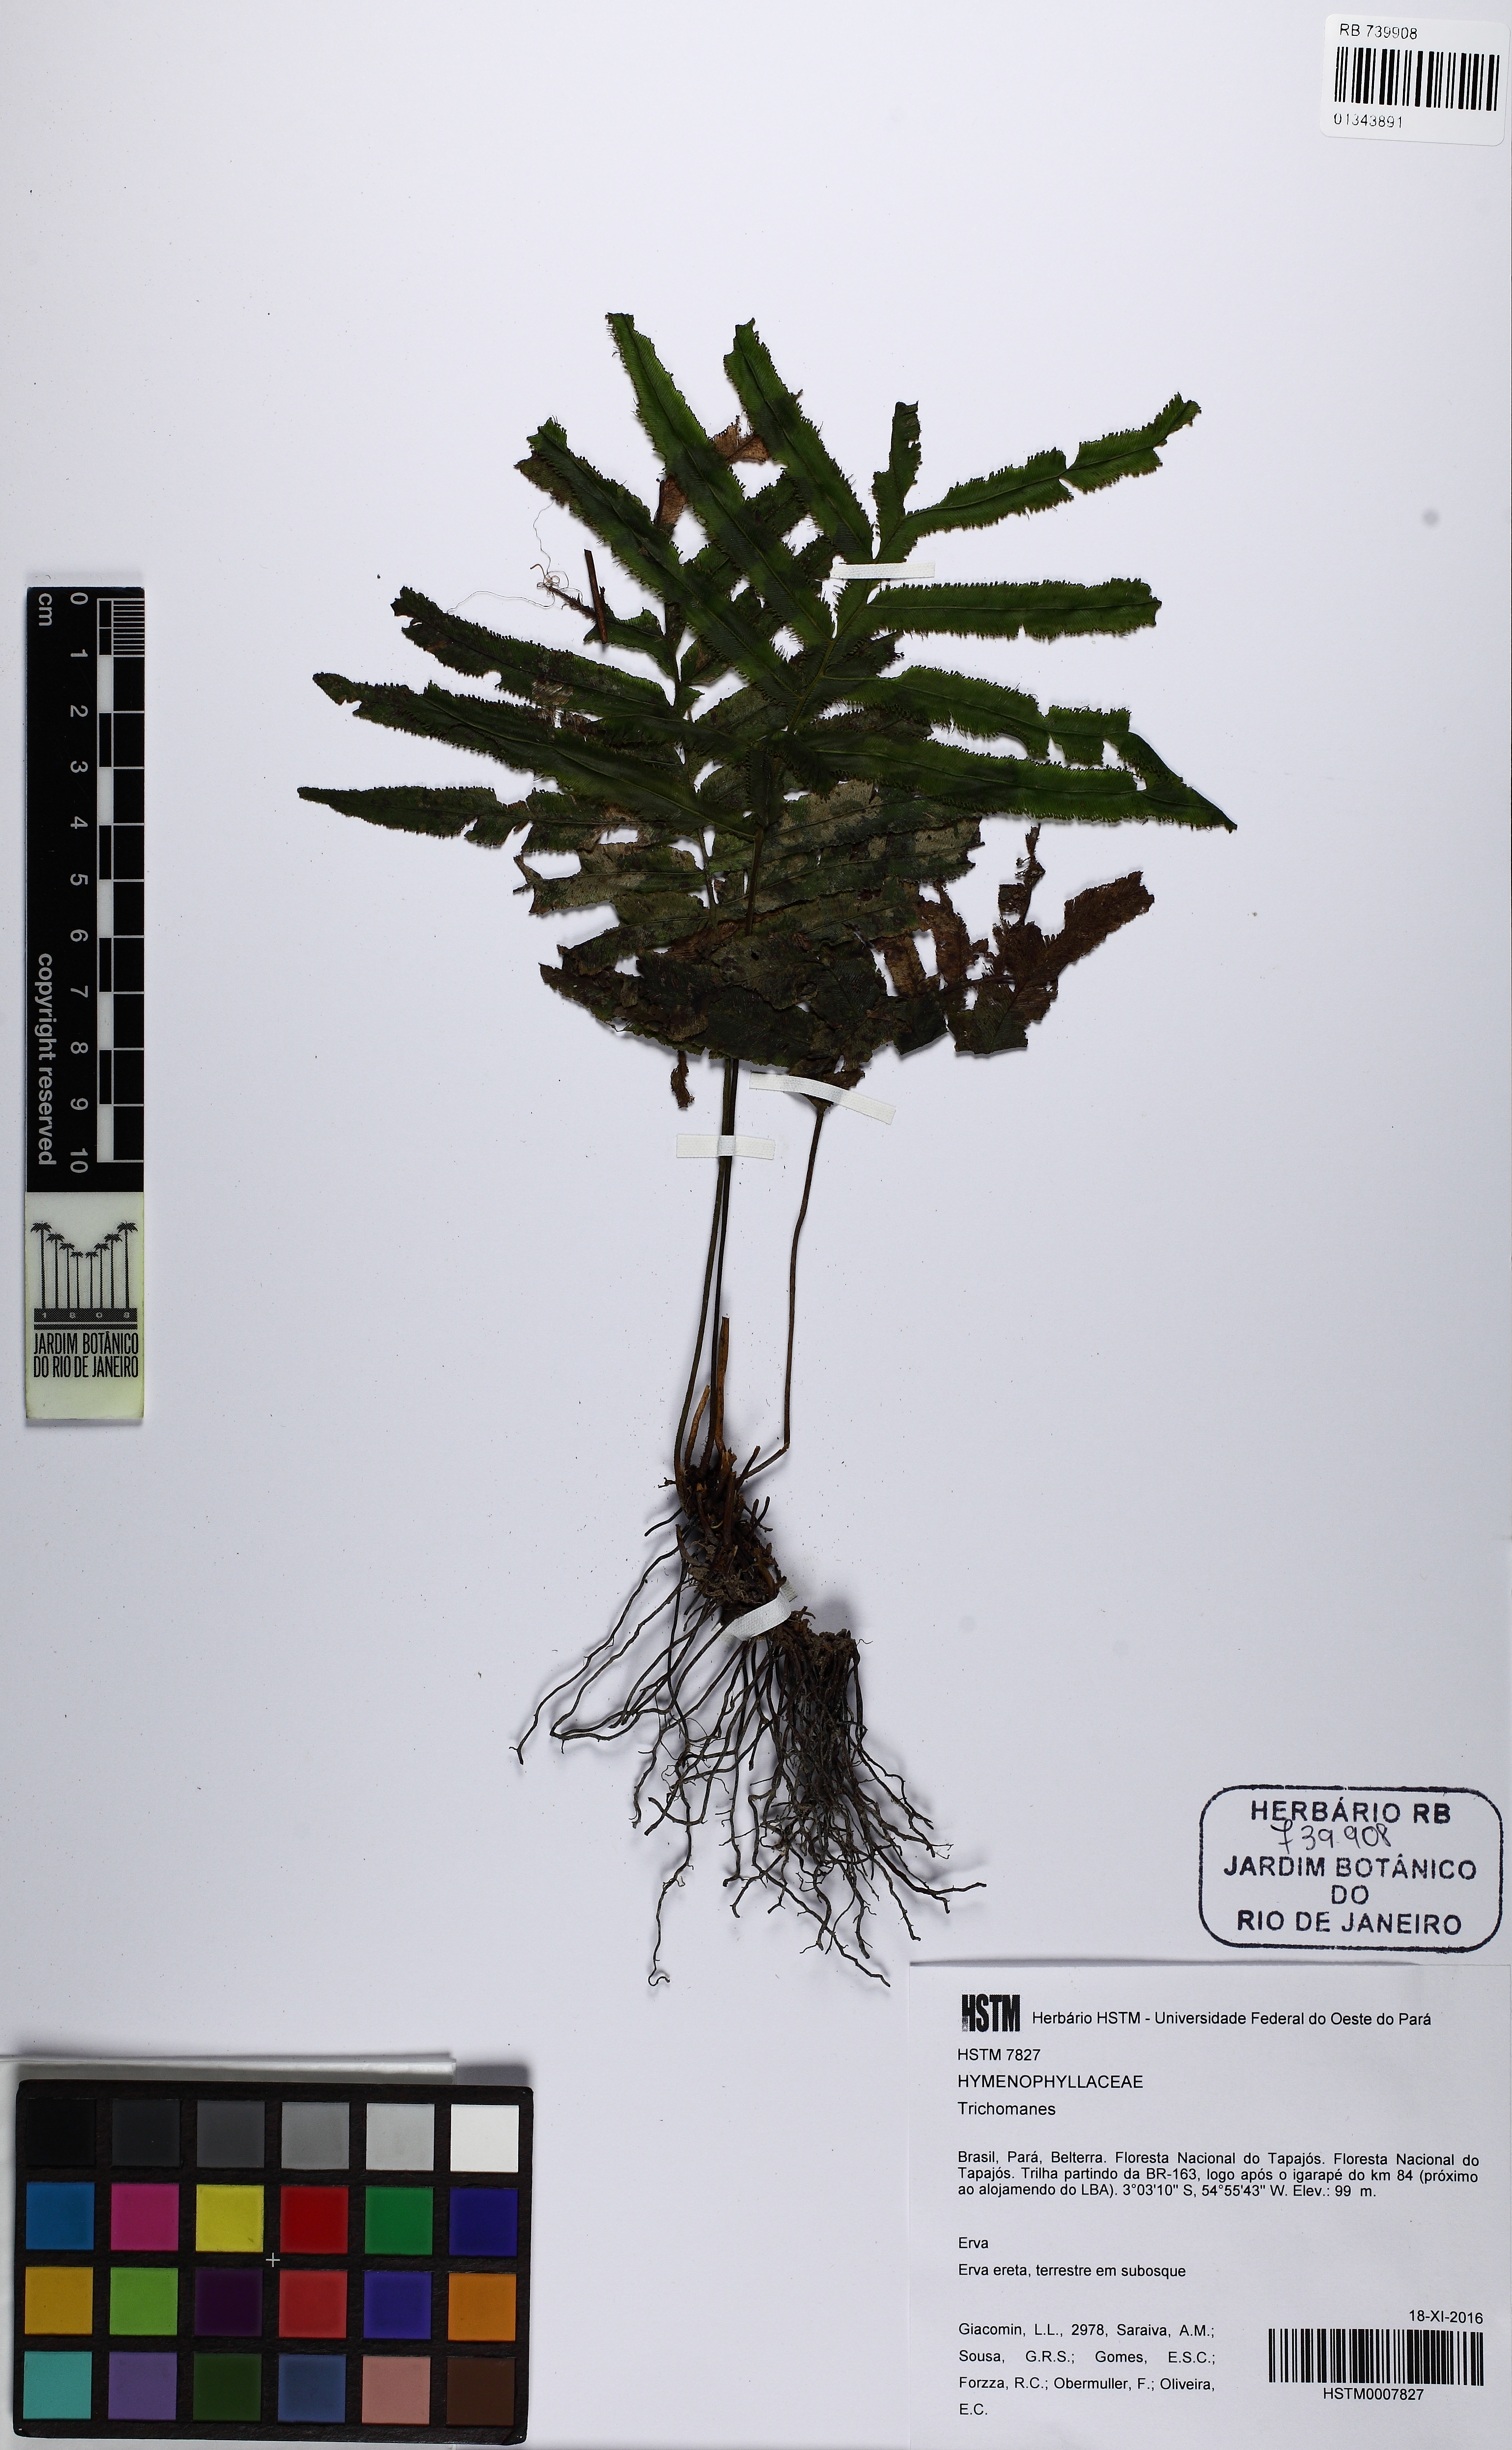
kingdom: Plantae
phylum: Tracheophyta
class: Polypodiopsida
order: Hymenophyllales
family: Hymenophyllaceae
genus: Trichomanes
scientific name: Trichomanes
